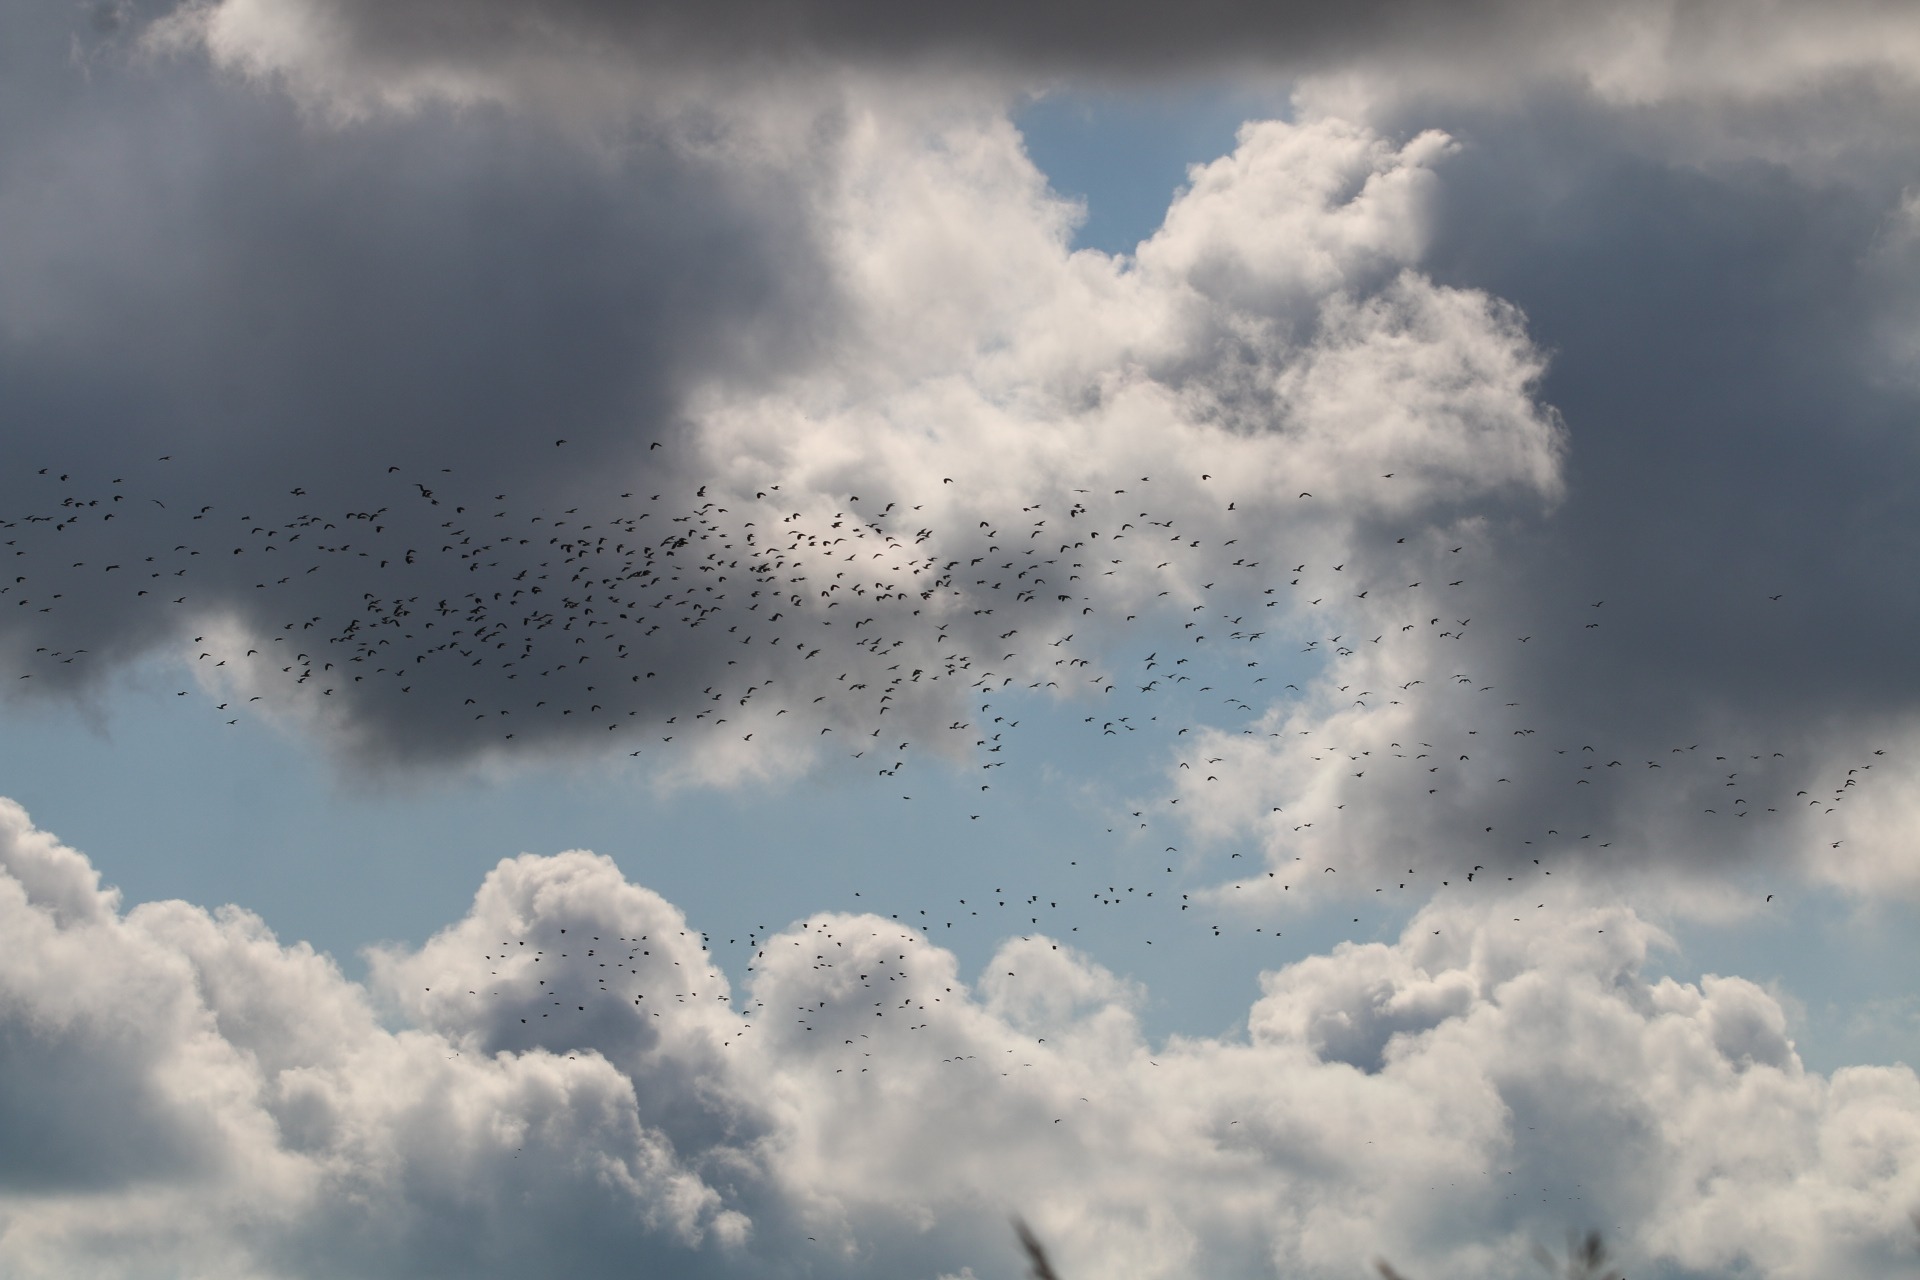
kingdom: Animalia
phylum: Chordata
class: Aves
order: Charadriiformes
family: Charadriidae
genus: Vanellus
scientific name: Vanellus vanellus
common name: Vibe
